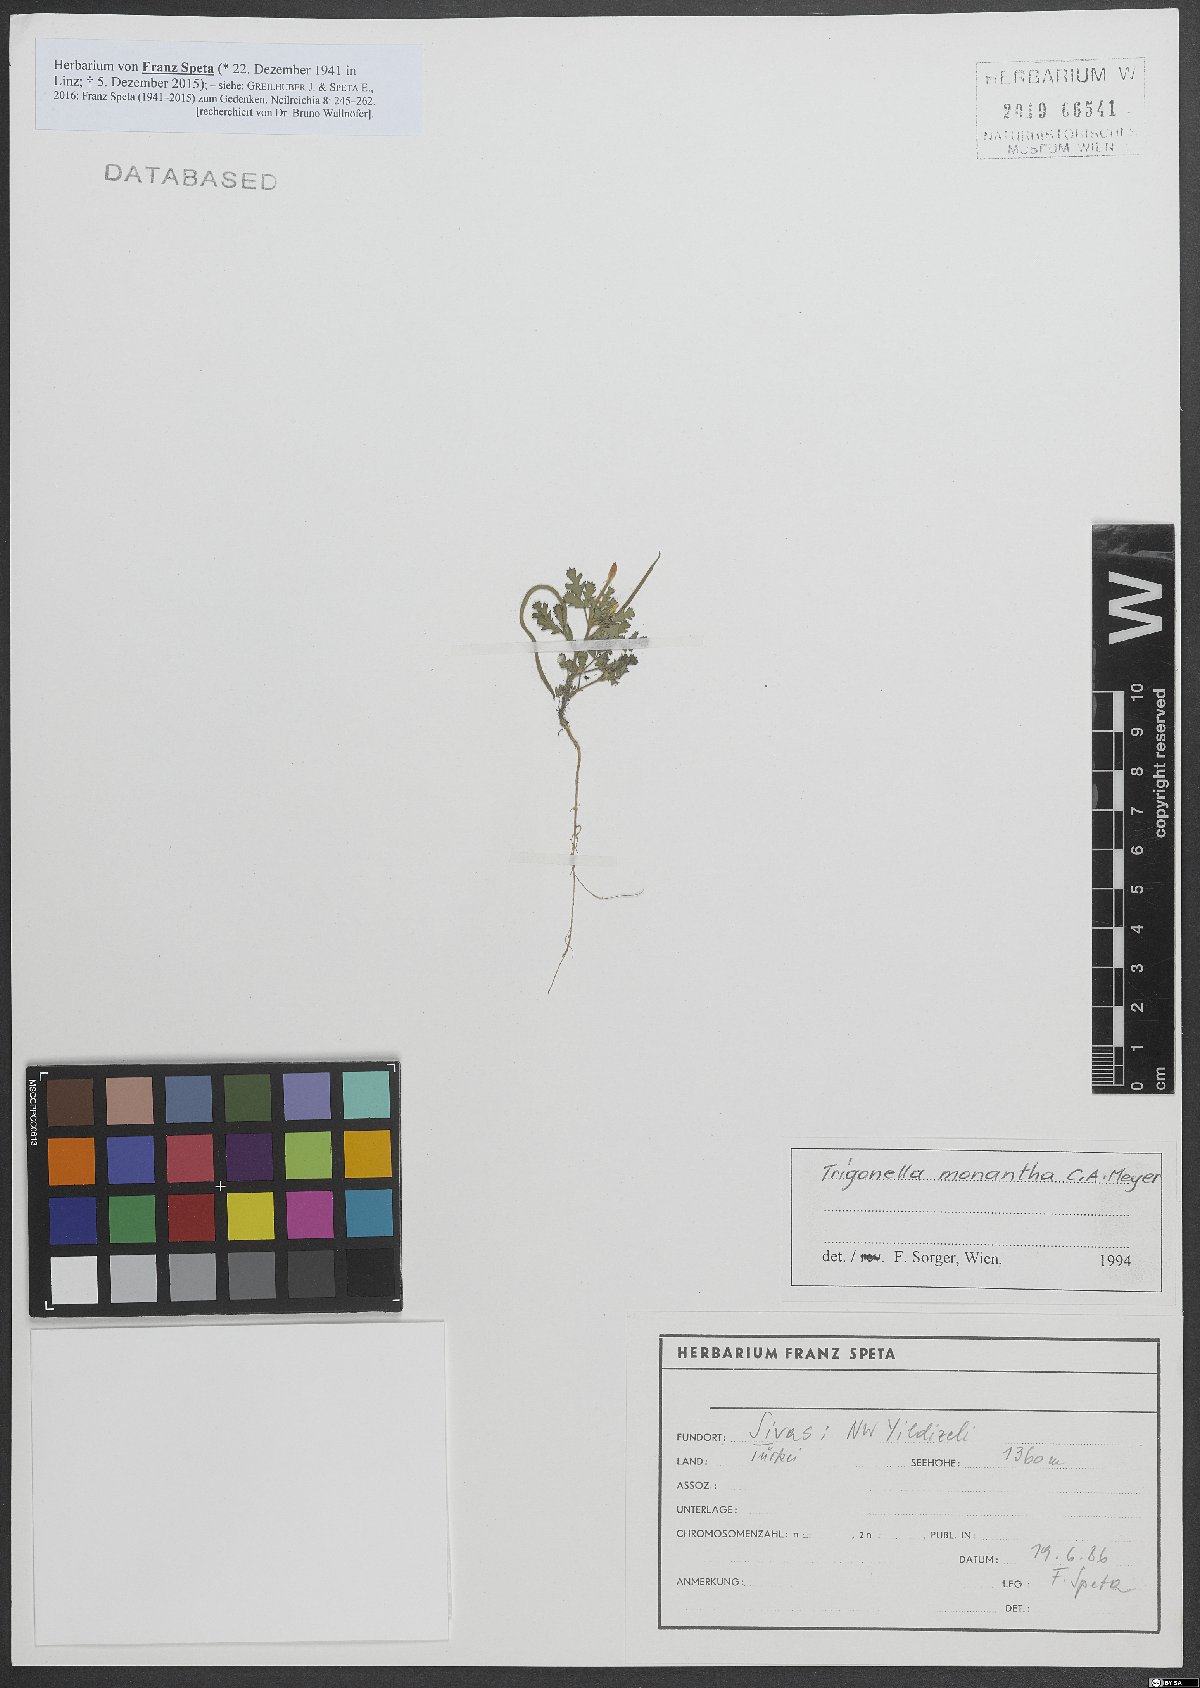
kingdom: Plantae
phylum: Tracheophyta
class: Magnoliopsida
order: Fabales
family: Fabaceae
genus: Medicago
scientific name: Medicago monantha
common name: Medick
